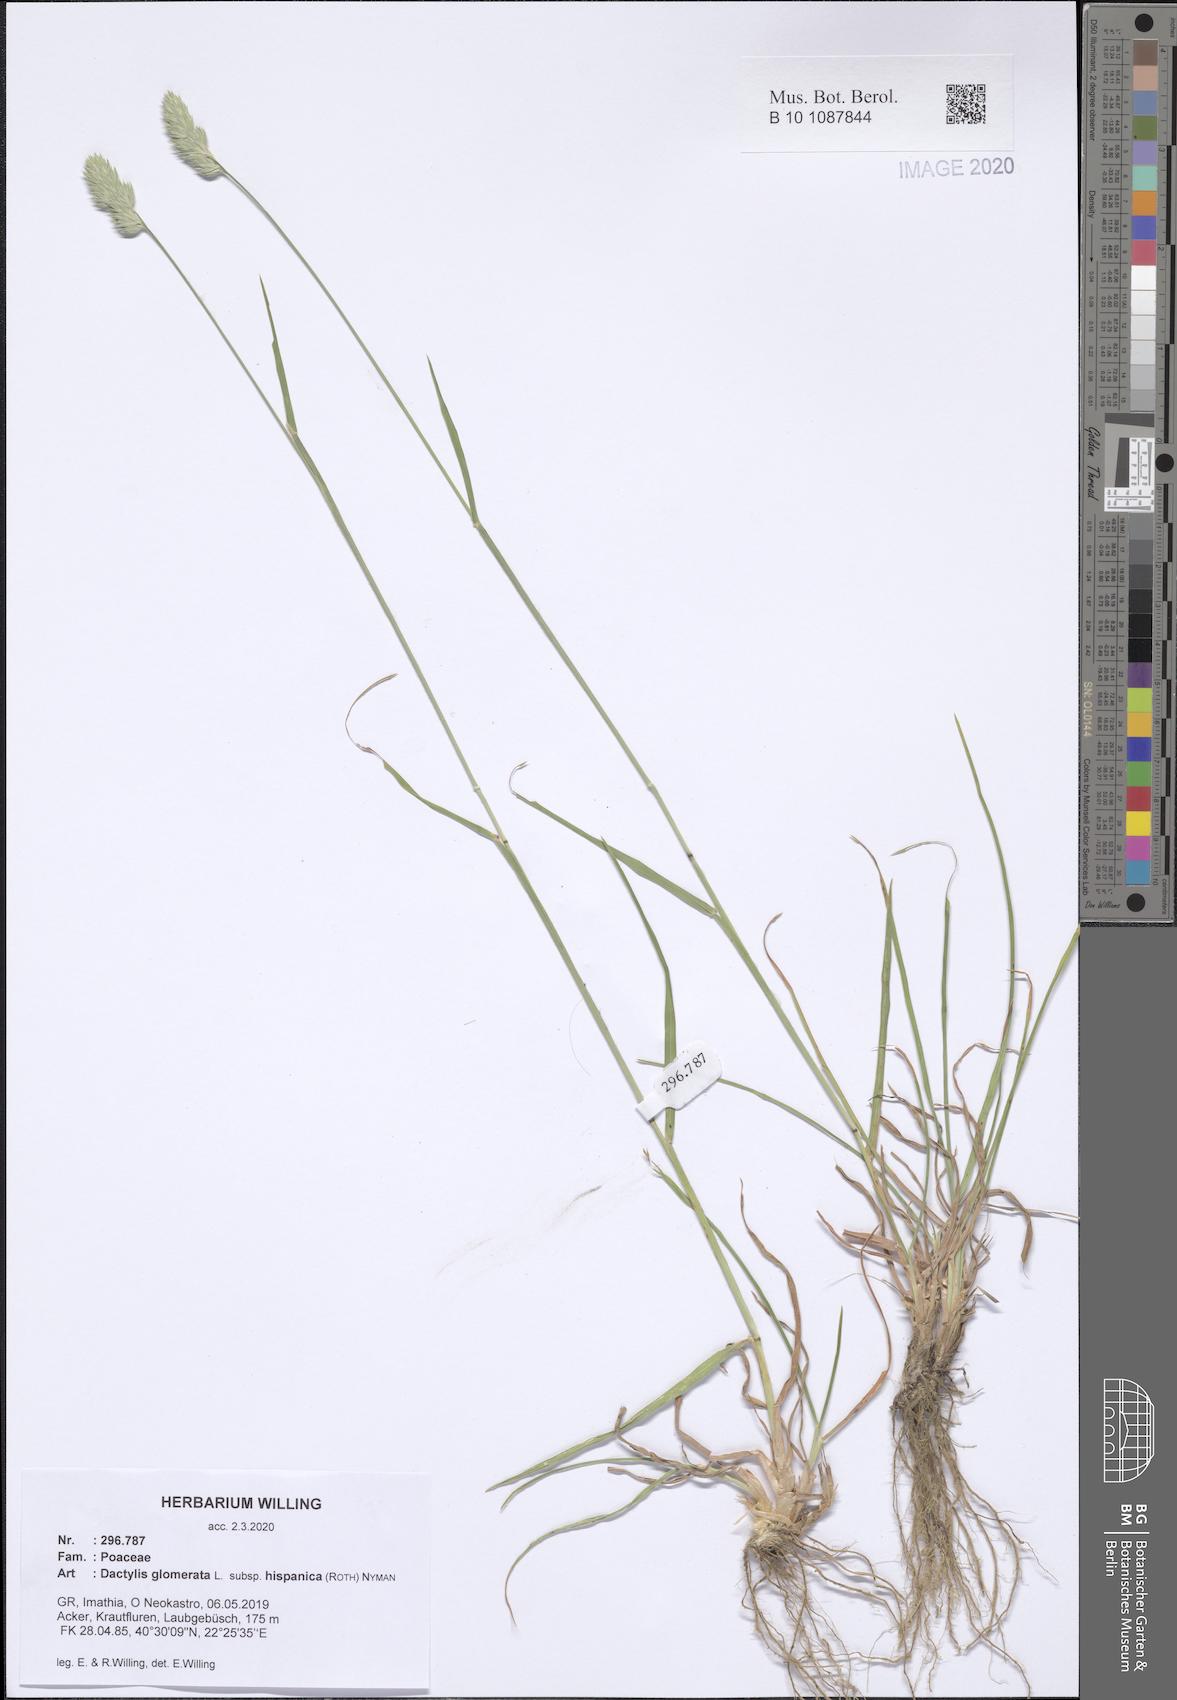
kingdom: Plantae
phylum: Tracheophyta
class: Liliopsida
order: Poales
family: Poaceae
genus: Dactylis
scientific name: Dactylis glomerata
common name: Orchardgrass
